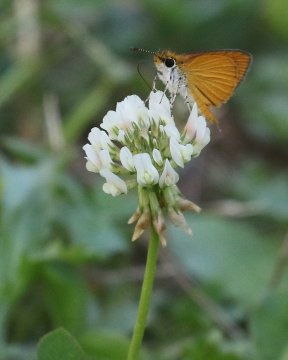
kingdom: Animalia
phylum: Arthropoda
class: Insecta
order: Lepidoptera
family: Hesperiidae
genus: Ancyloxypha
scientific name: Ancyloxypha numitor
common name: Least Skipper
